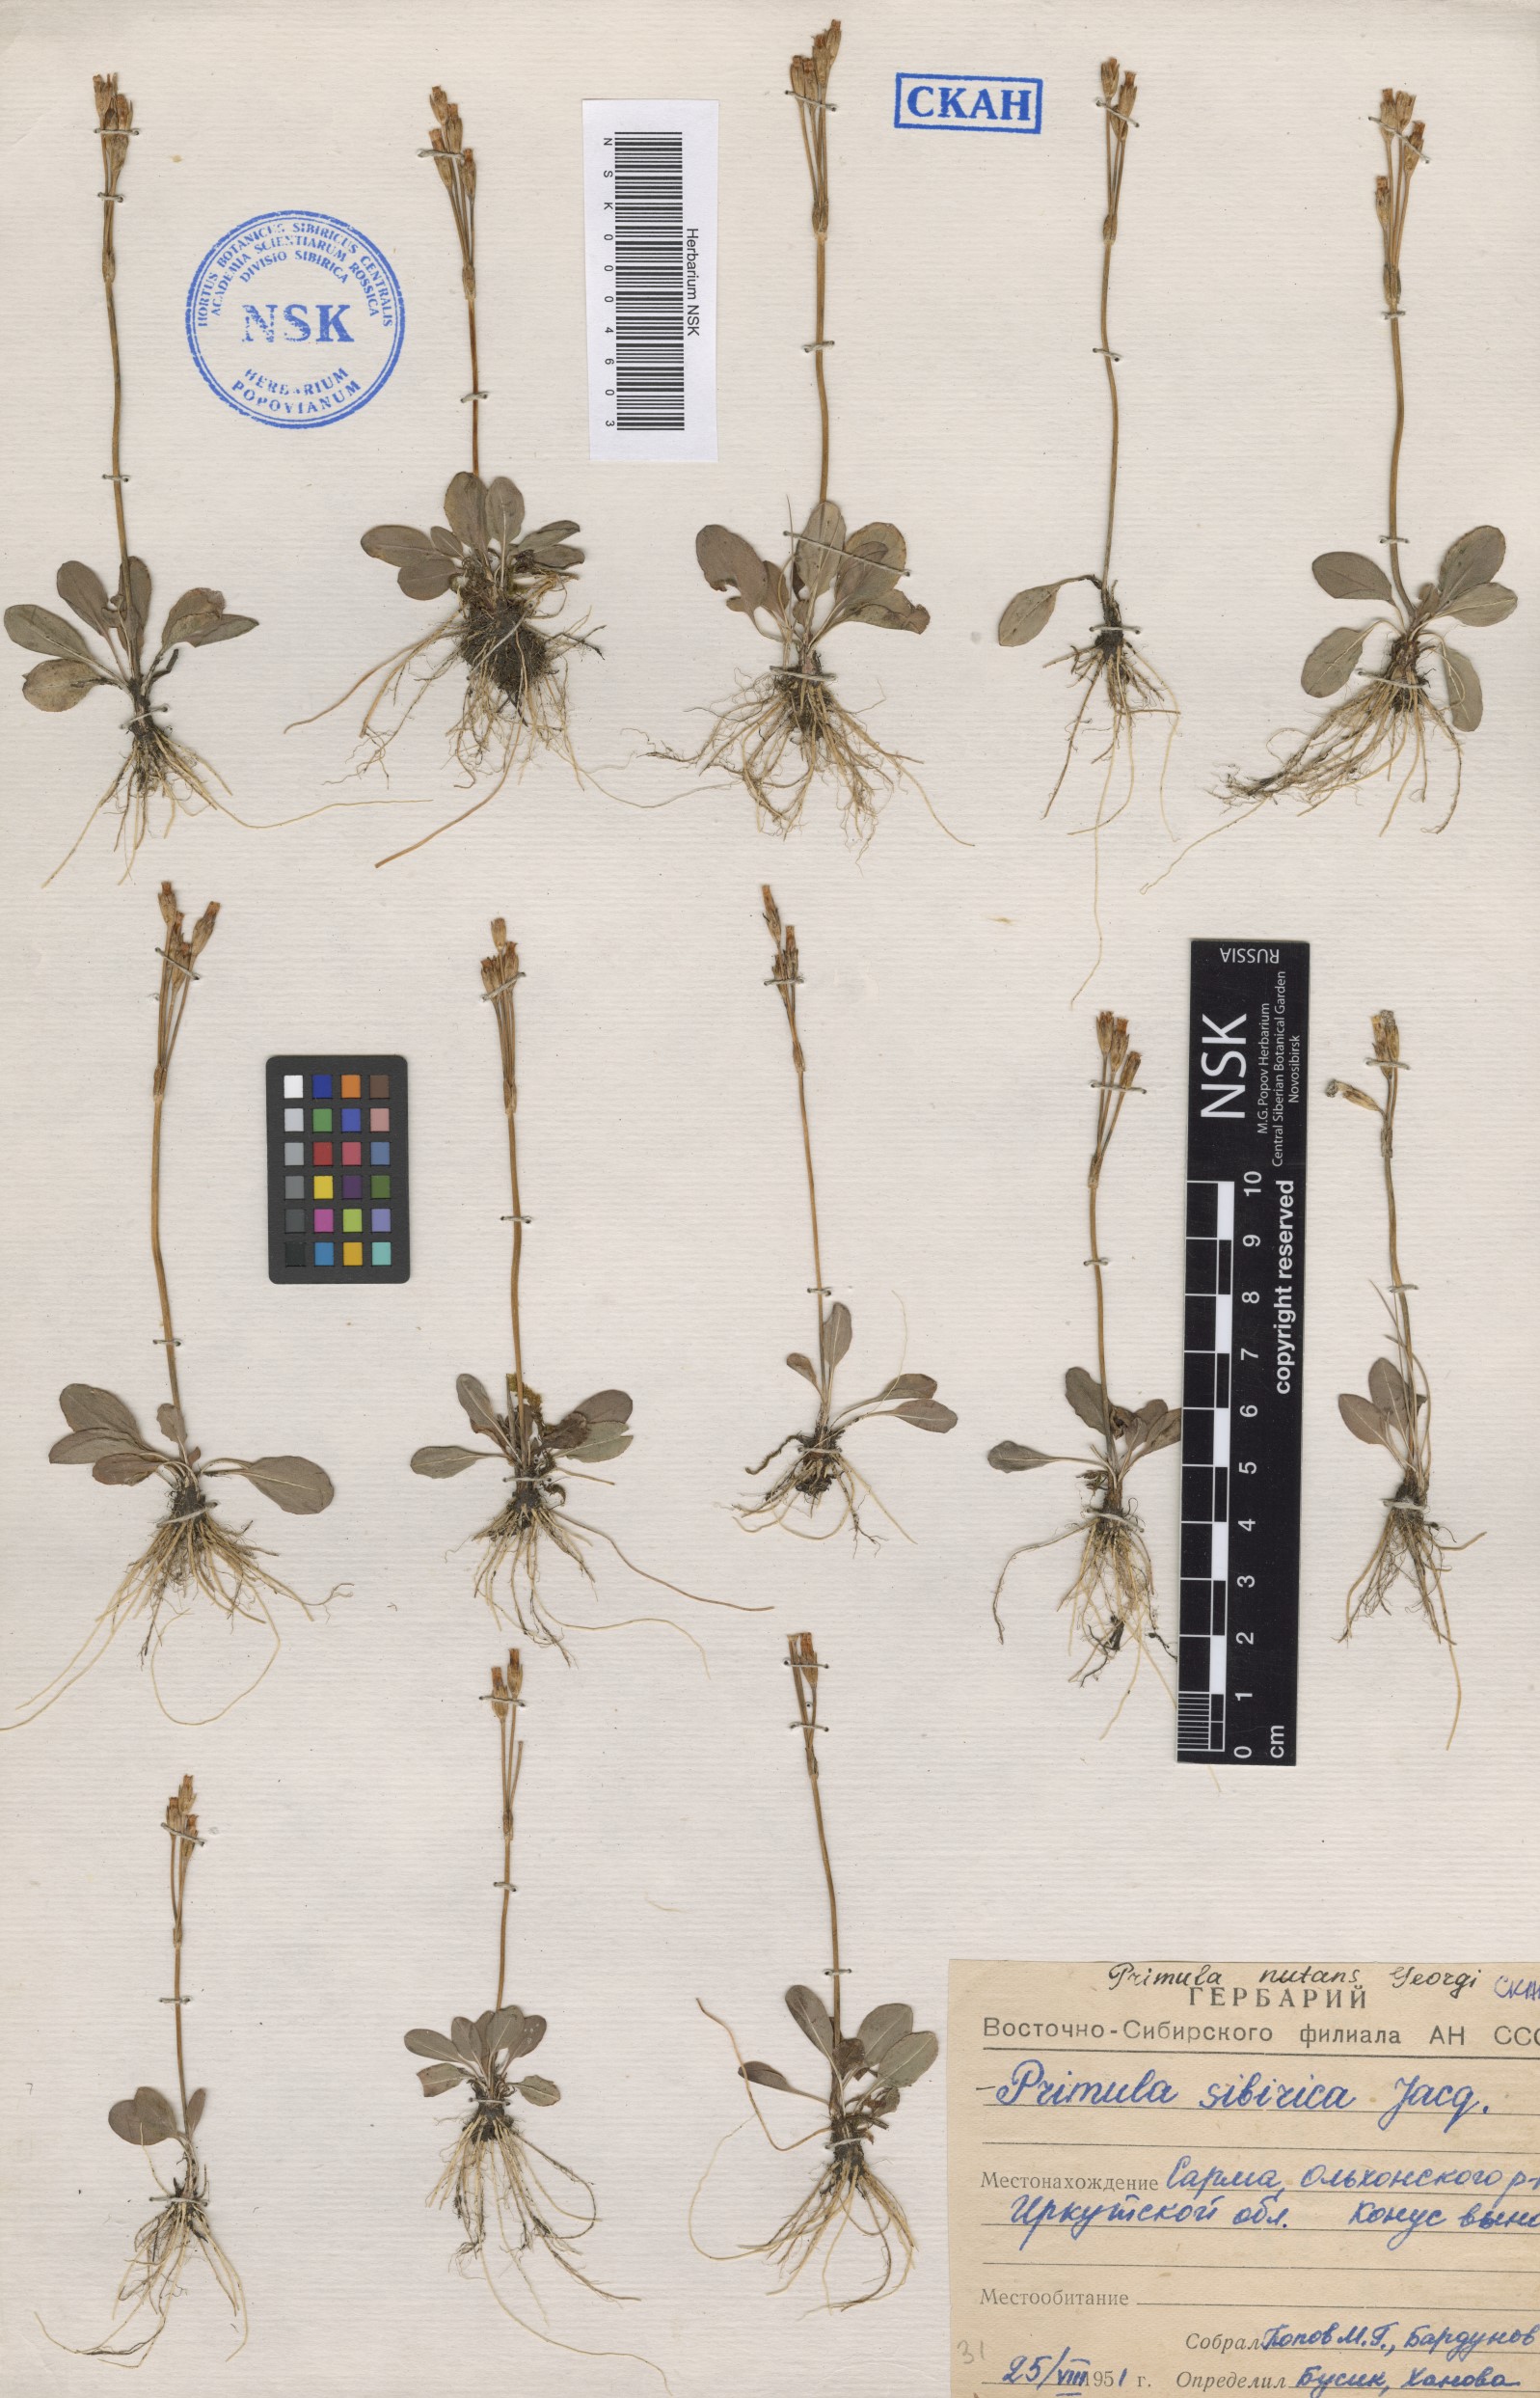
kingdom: Plantae
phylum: Tracheophyta
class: Magnoliopsida
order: Ericales
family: Primulaceae
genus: Primula
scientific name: Primula nutans
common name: Siberian primrose
